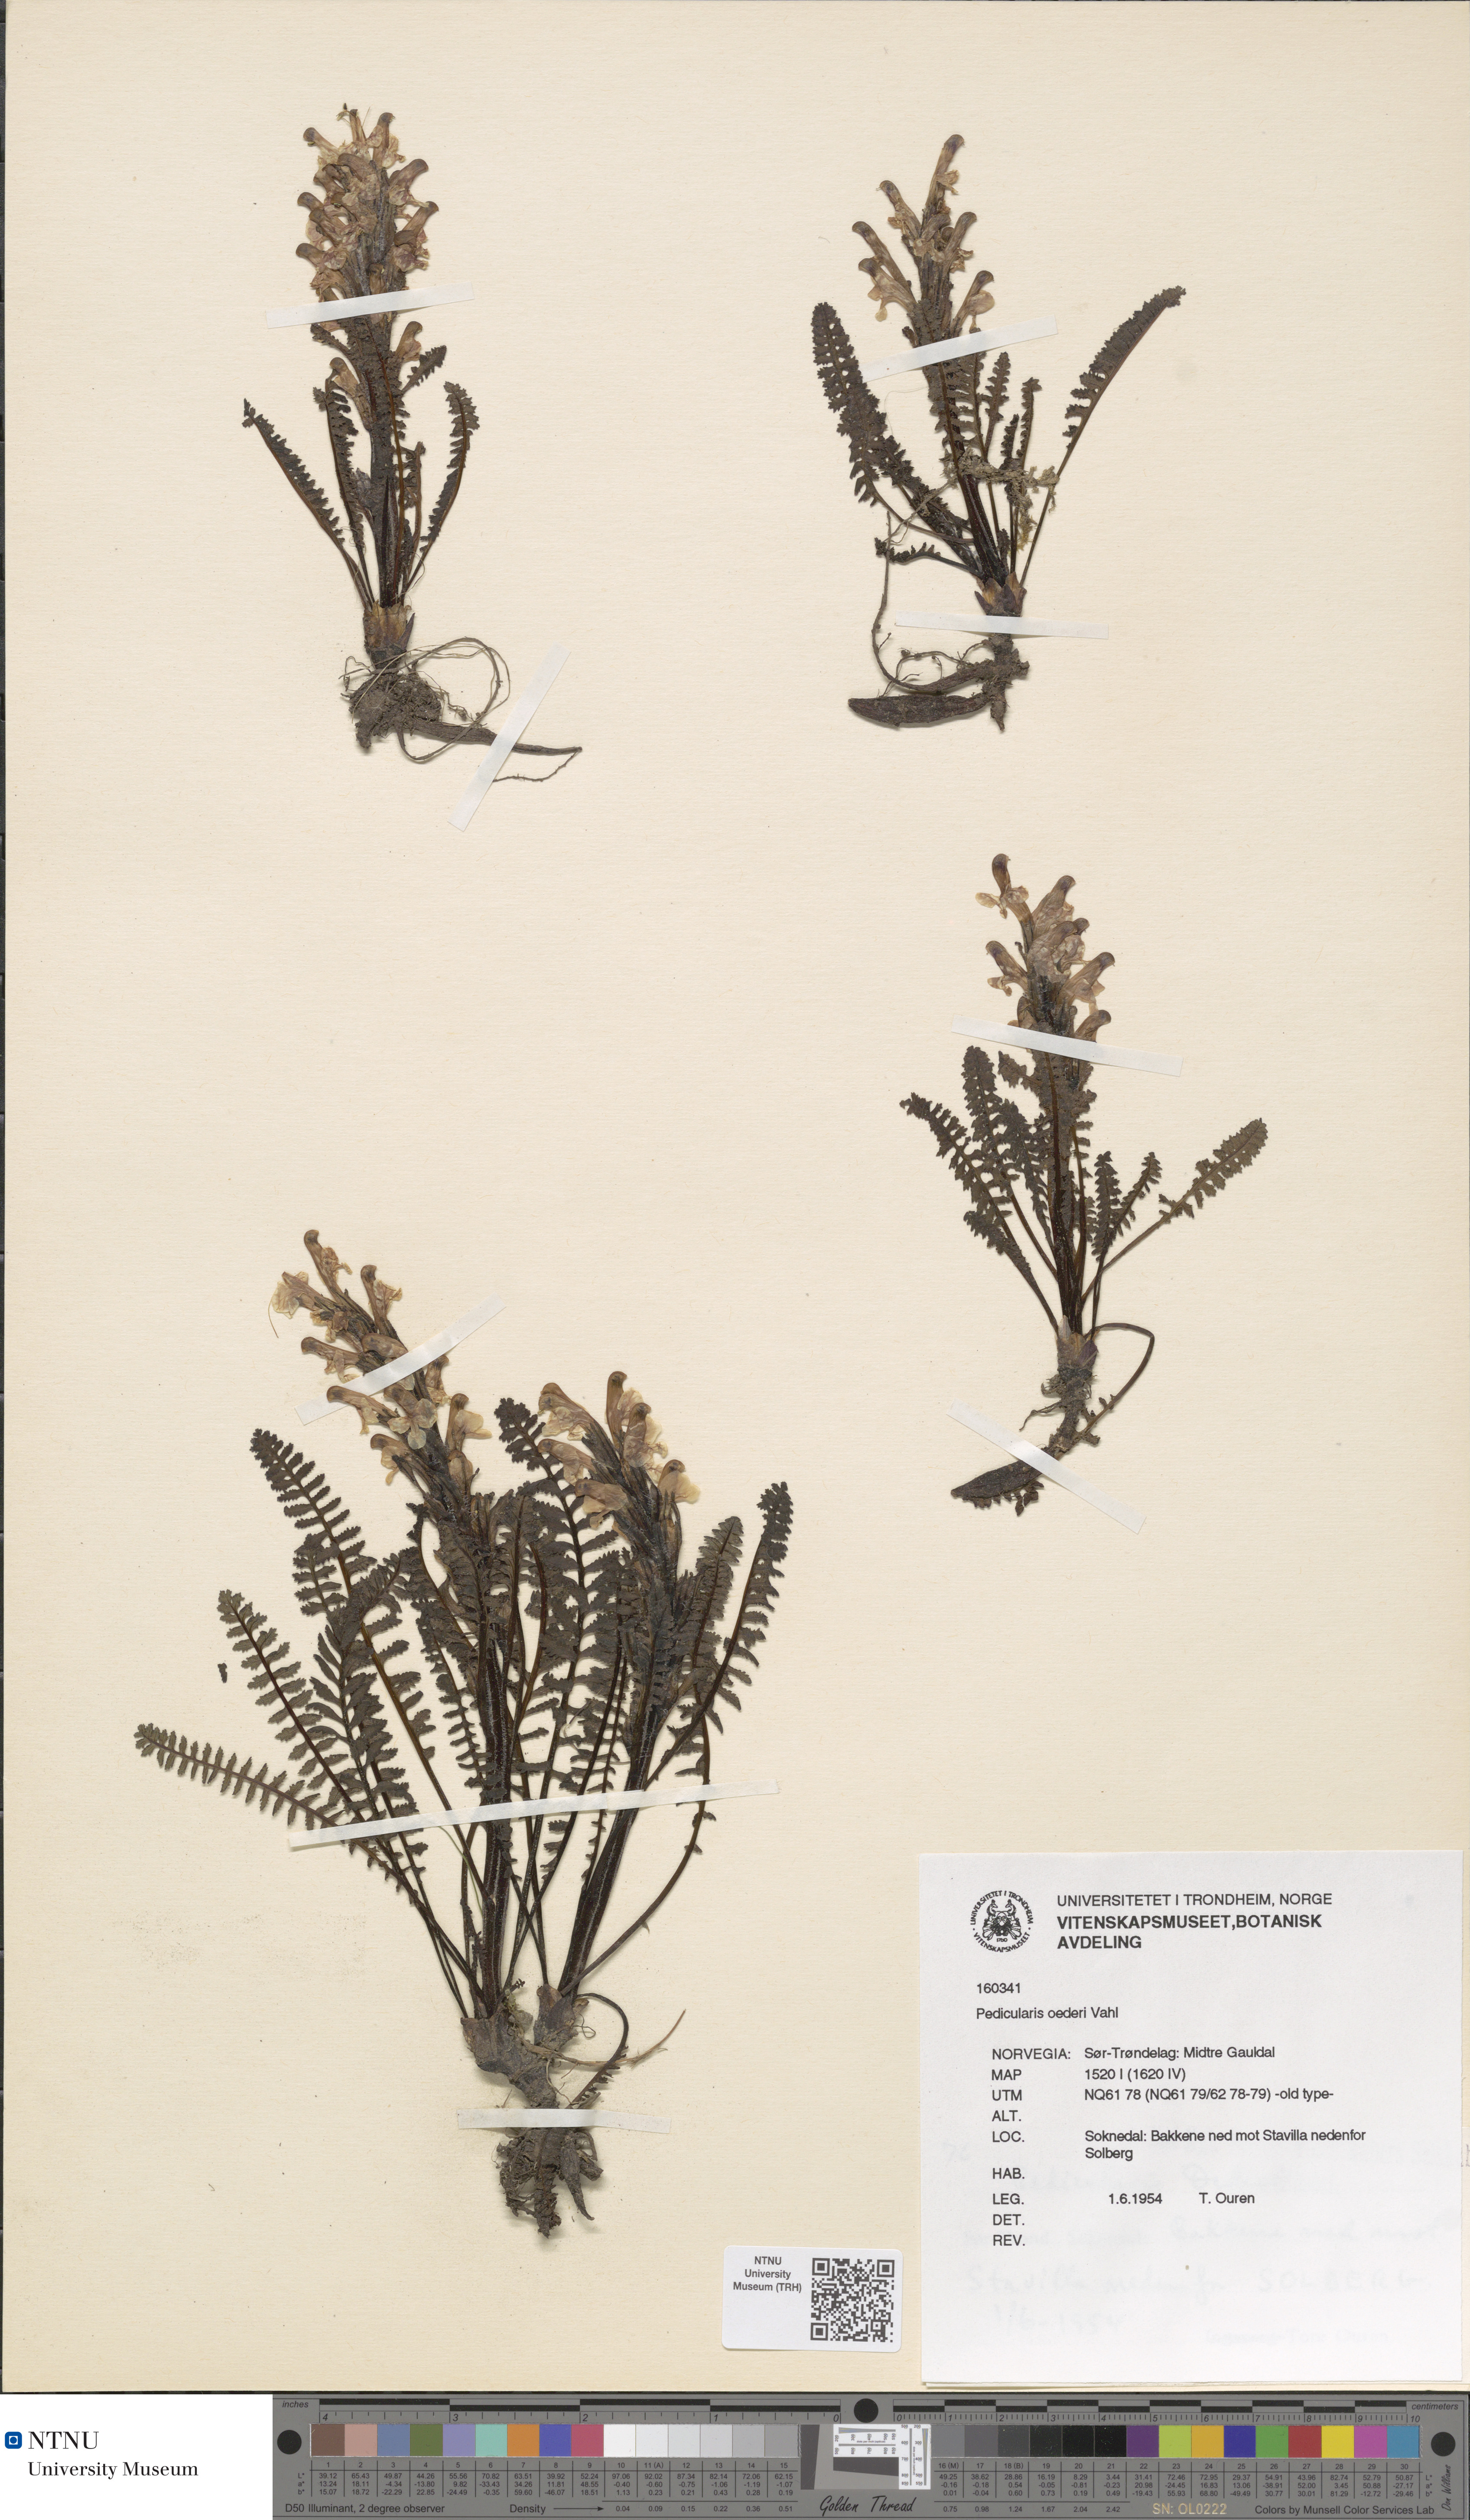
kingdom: Plantae
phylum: Tracheophyta
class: Magnoliopsida
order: Lamiales
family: Orobanchaceae
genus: Pedicularis
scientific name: Pedicularis oederi
